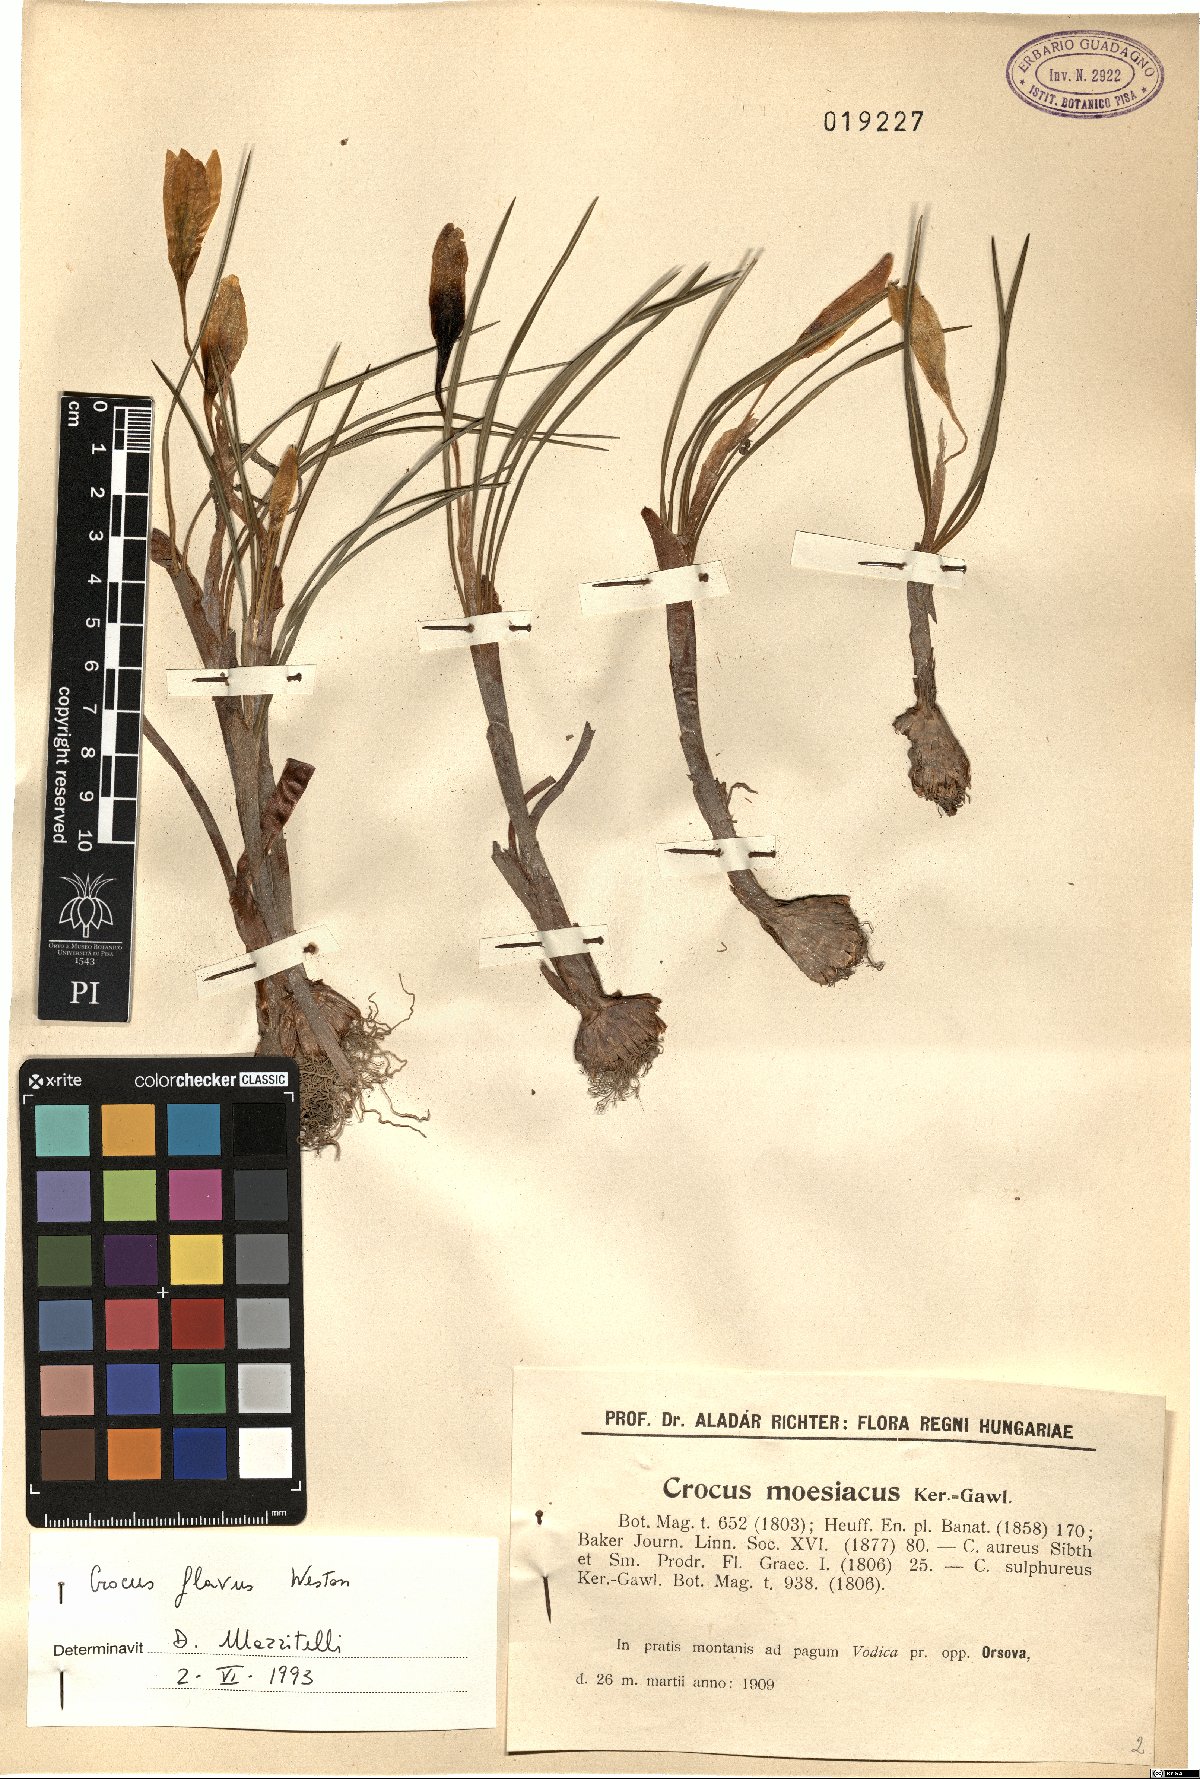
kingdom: Plantae
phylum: Tracheophyta
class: Liliopsida
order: Asparagales
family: Iridaceae
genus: Crocus
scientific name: Crocus flavus
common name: Yellow crocus
